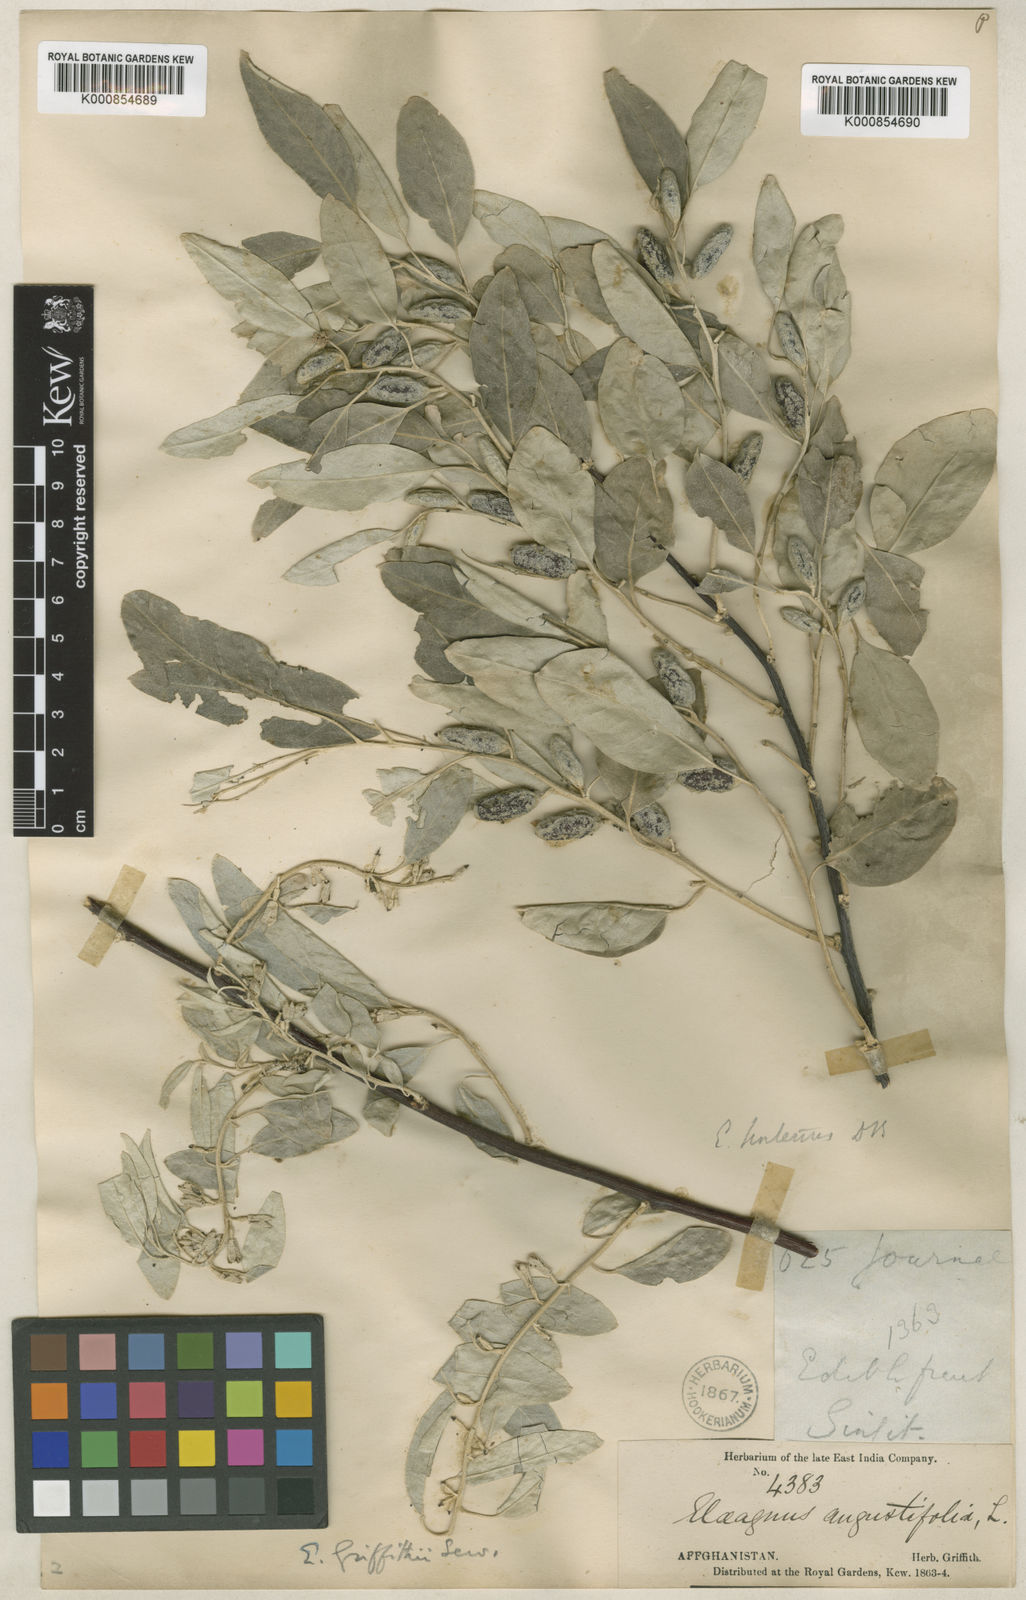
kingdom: Plantae
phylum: Tracheophyta
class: Magnoliopsida
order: Rosales
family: Elaeagnaceae
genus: Elaeagnus
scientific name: Elaeagnus griffithii
